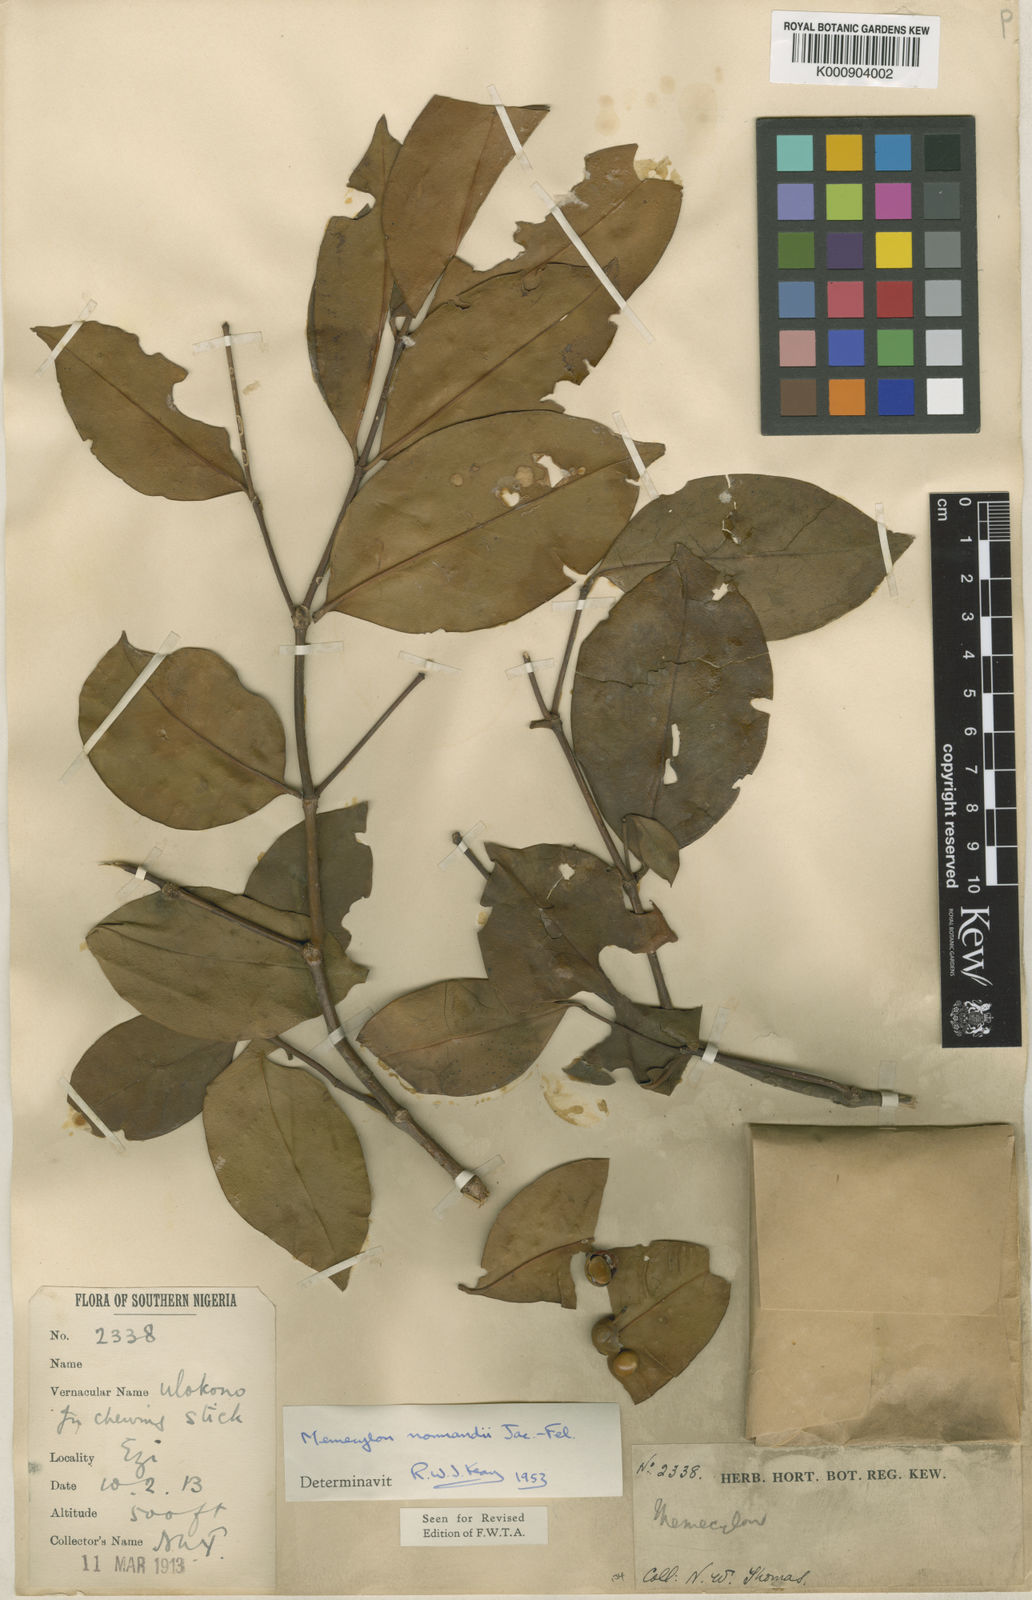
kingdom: Plantae
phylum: Tracheophyta
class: Magnoliopsida
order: Myrtales
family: Melastomataceae
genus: Memecylon
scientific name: Memecylon
